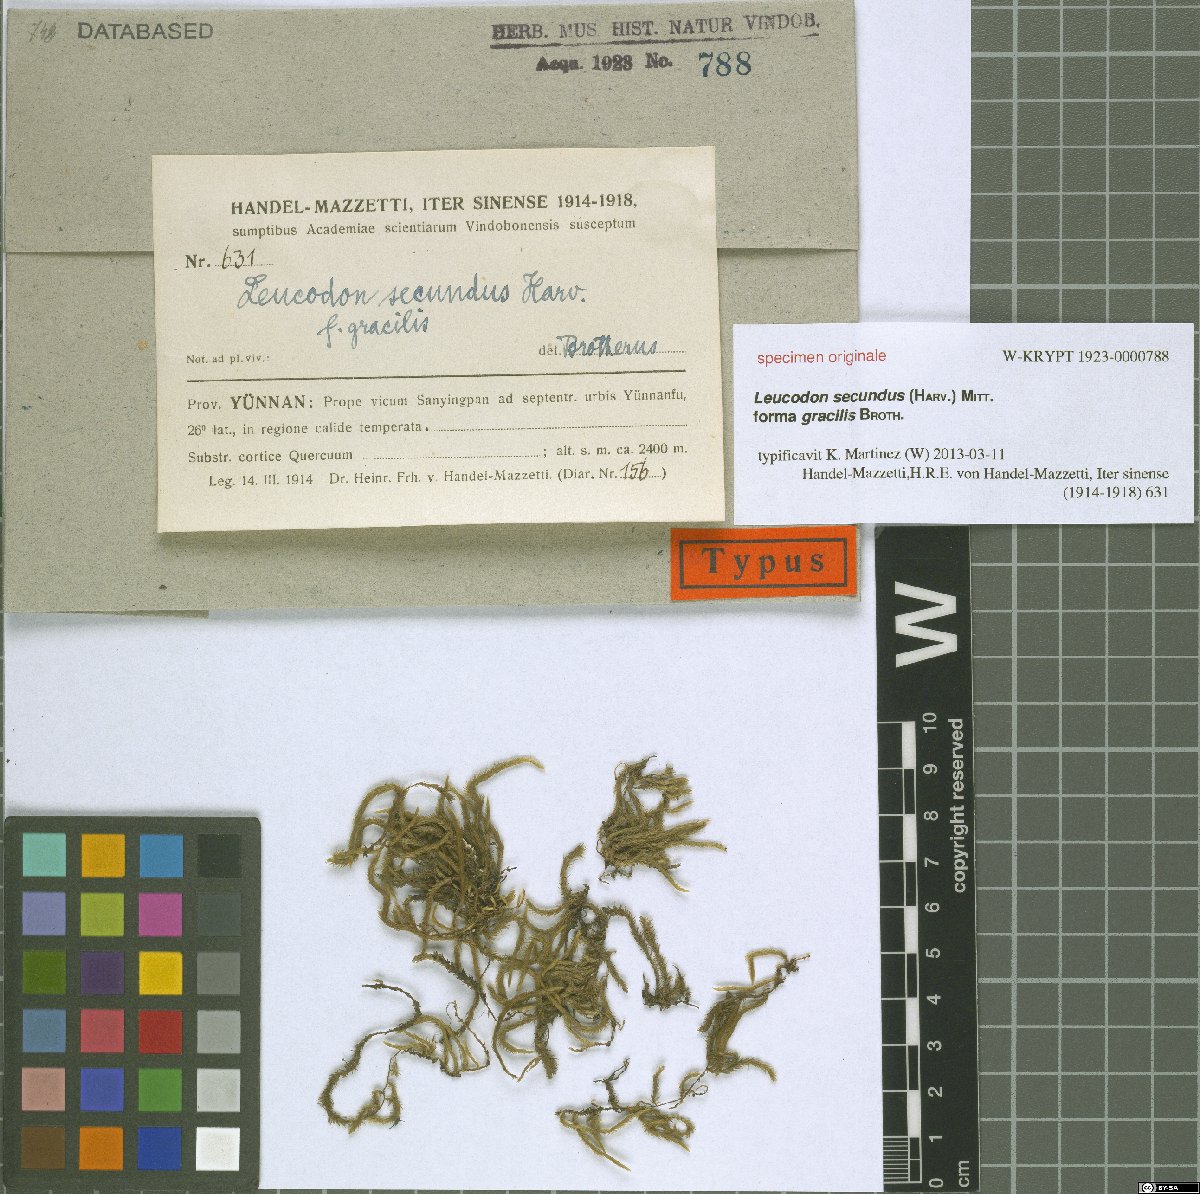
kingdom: Plantae
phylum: Bryophyta
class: Bryopsida
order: Hypnales
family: Leucodontaceae
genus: Leucodon
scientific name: Leucodon secundus
